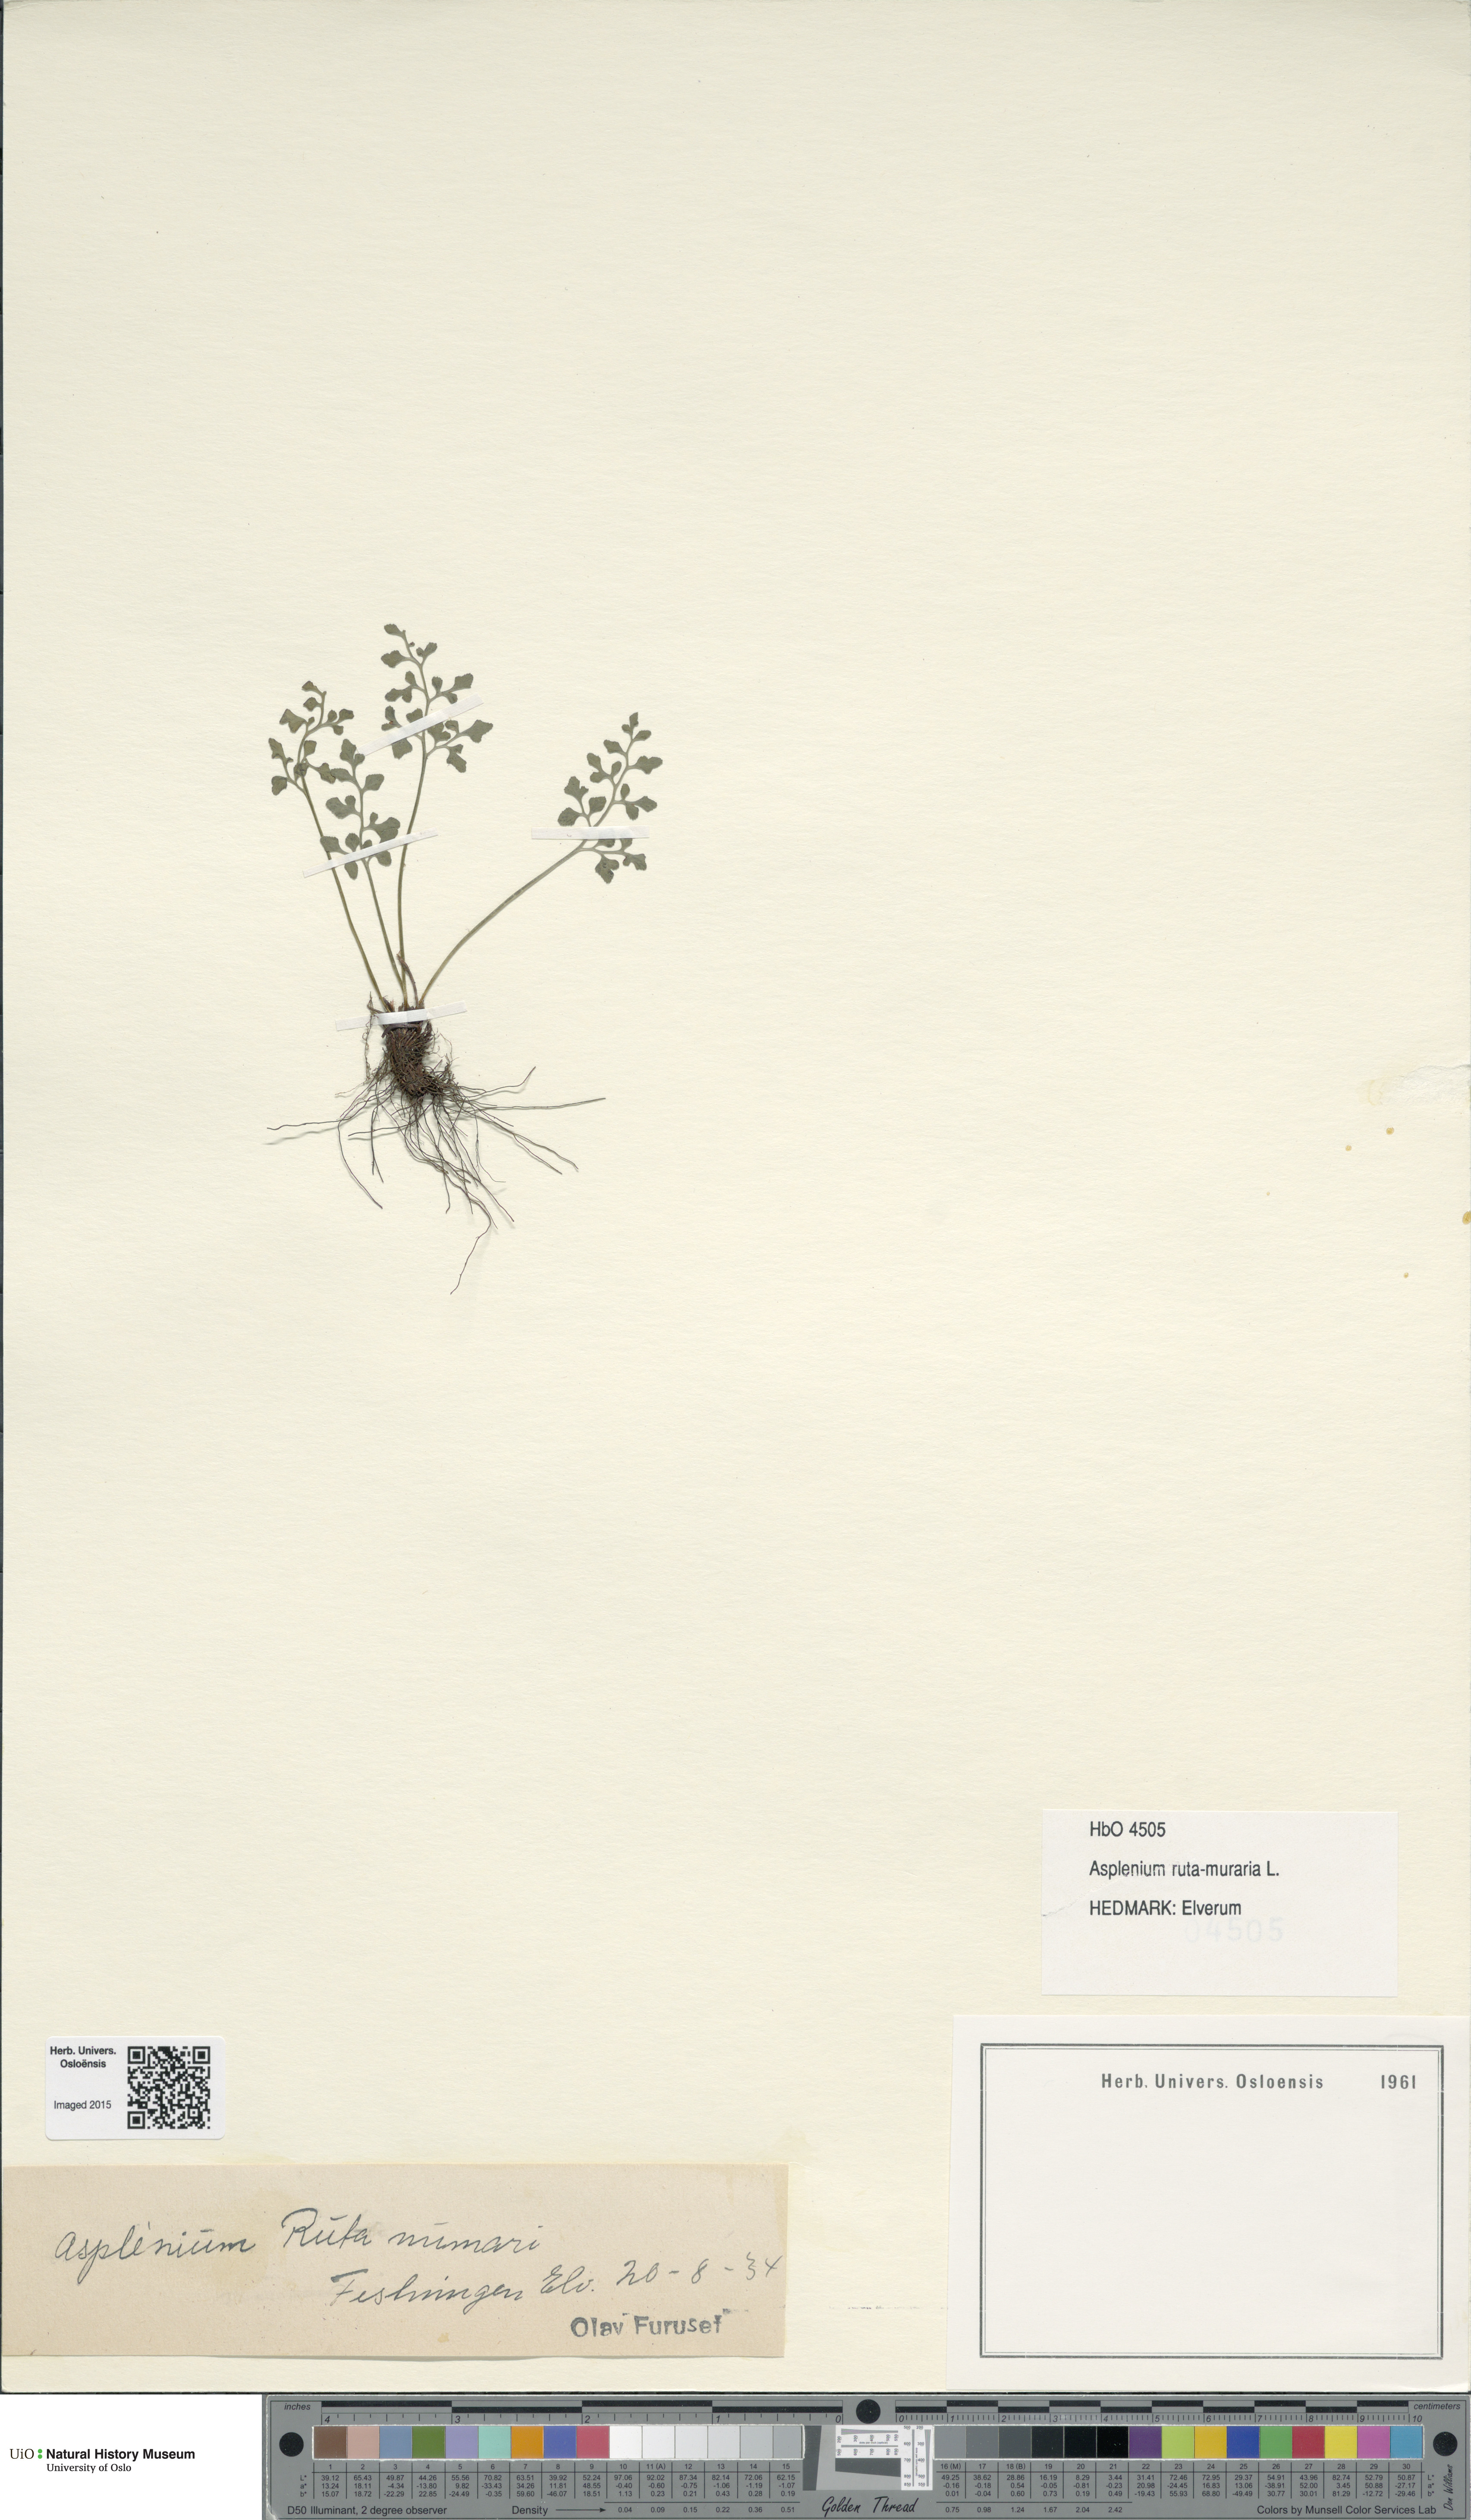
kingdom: Plantae
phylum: Tracheophyta
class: Polypodiopsida
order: Polypodiales
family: Aspleniaceae
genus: Asplenium
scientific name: Asplenium ruta-muraria
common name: Wall-rue
